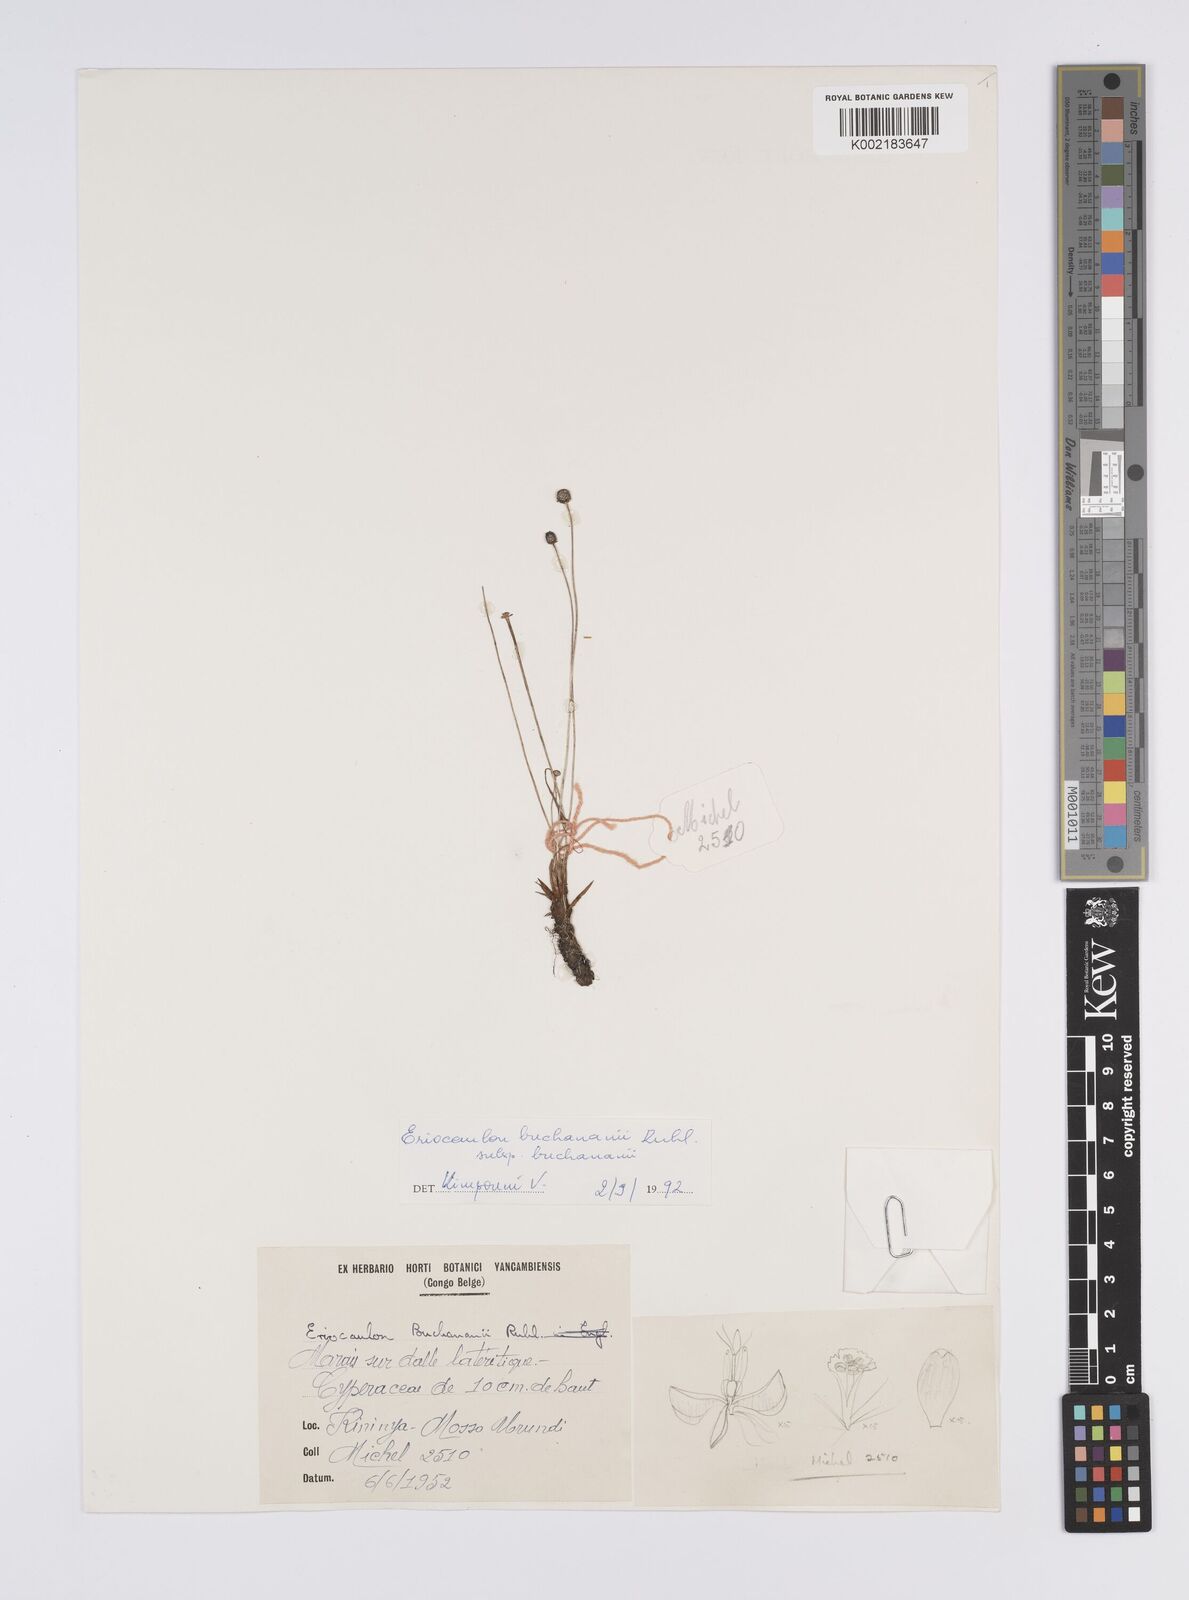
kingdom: Plantae
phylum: Tracheophyta
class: Liliopsida
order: Poales
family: Eriocaulaceae
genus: Eriocaulon
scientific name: Eriocaulon modestum
